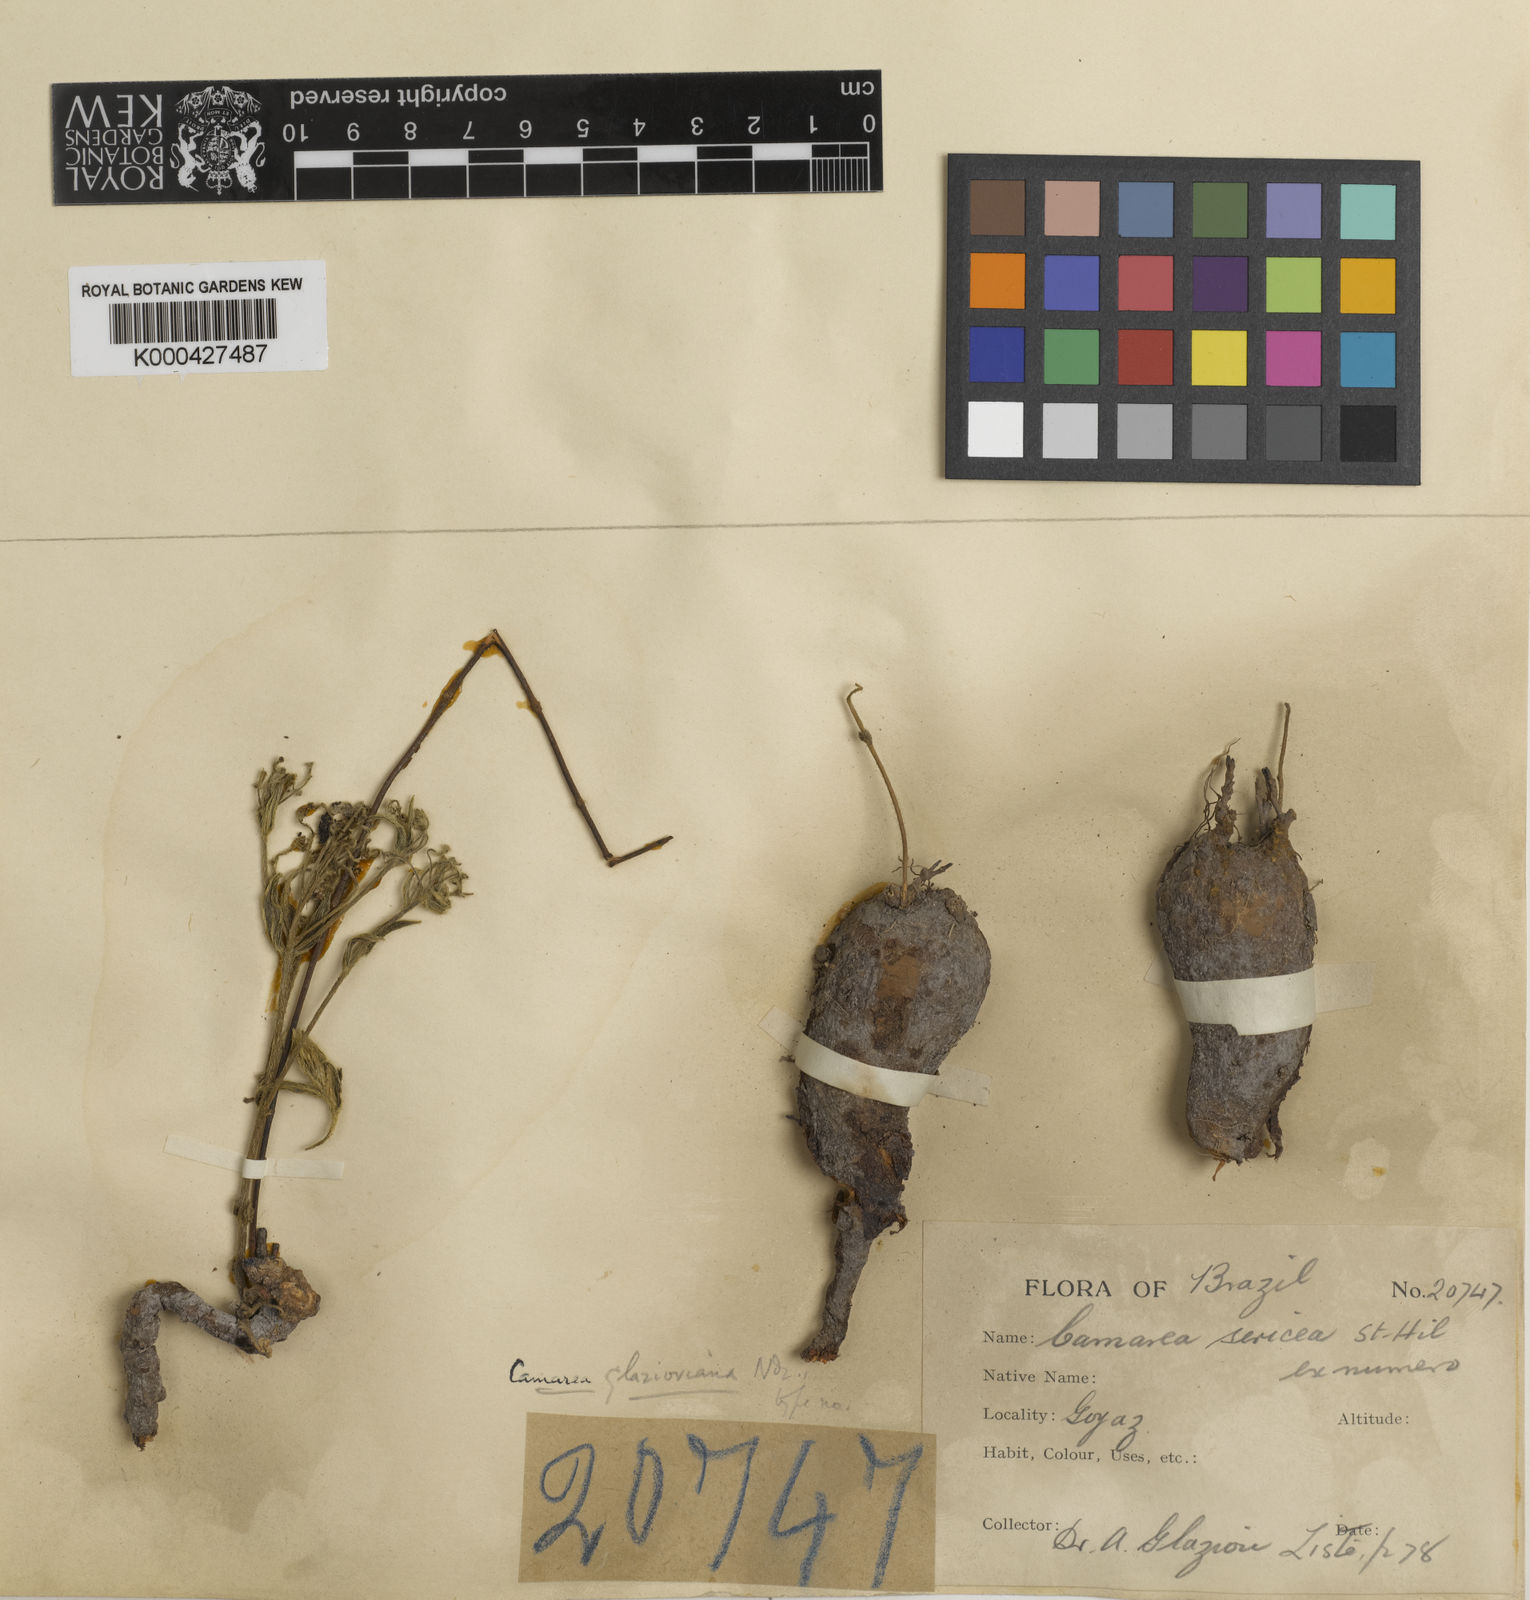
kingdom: Plantae
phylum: Tracheophyta
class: Magnoliopsida
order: Malpighiales
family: Malpighiaceae
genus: Camarea
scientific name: Camarea sericea
